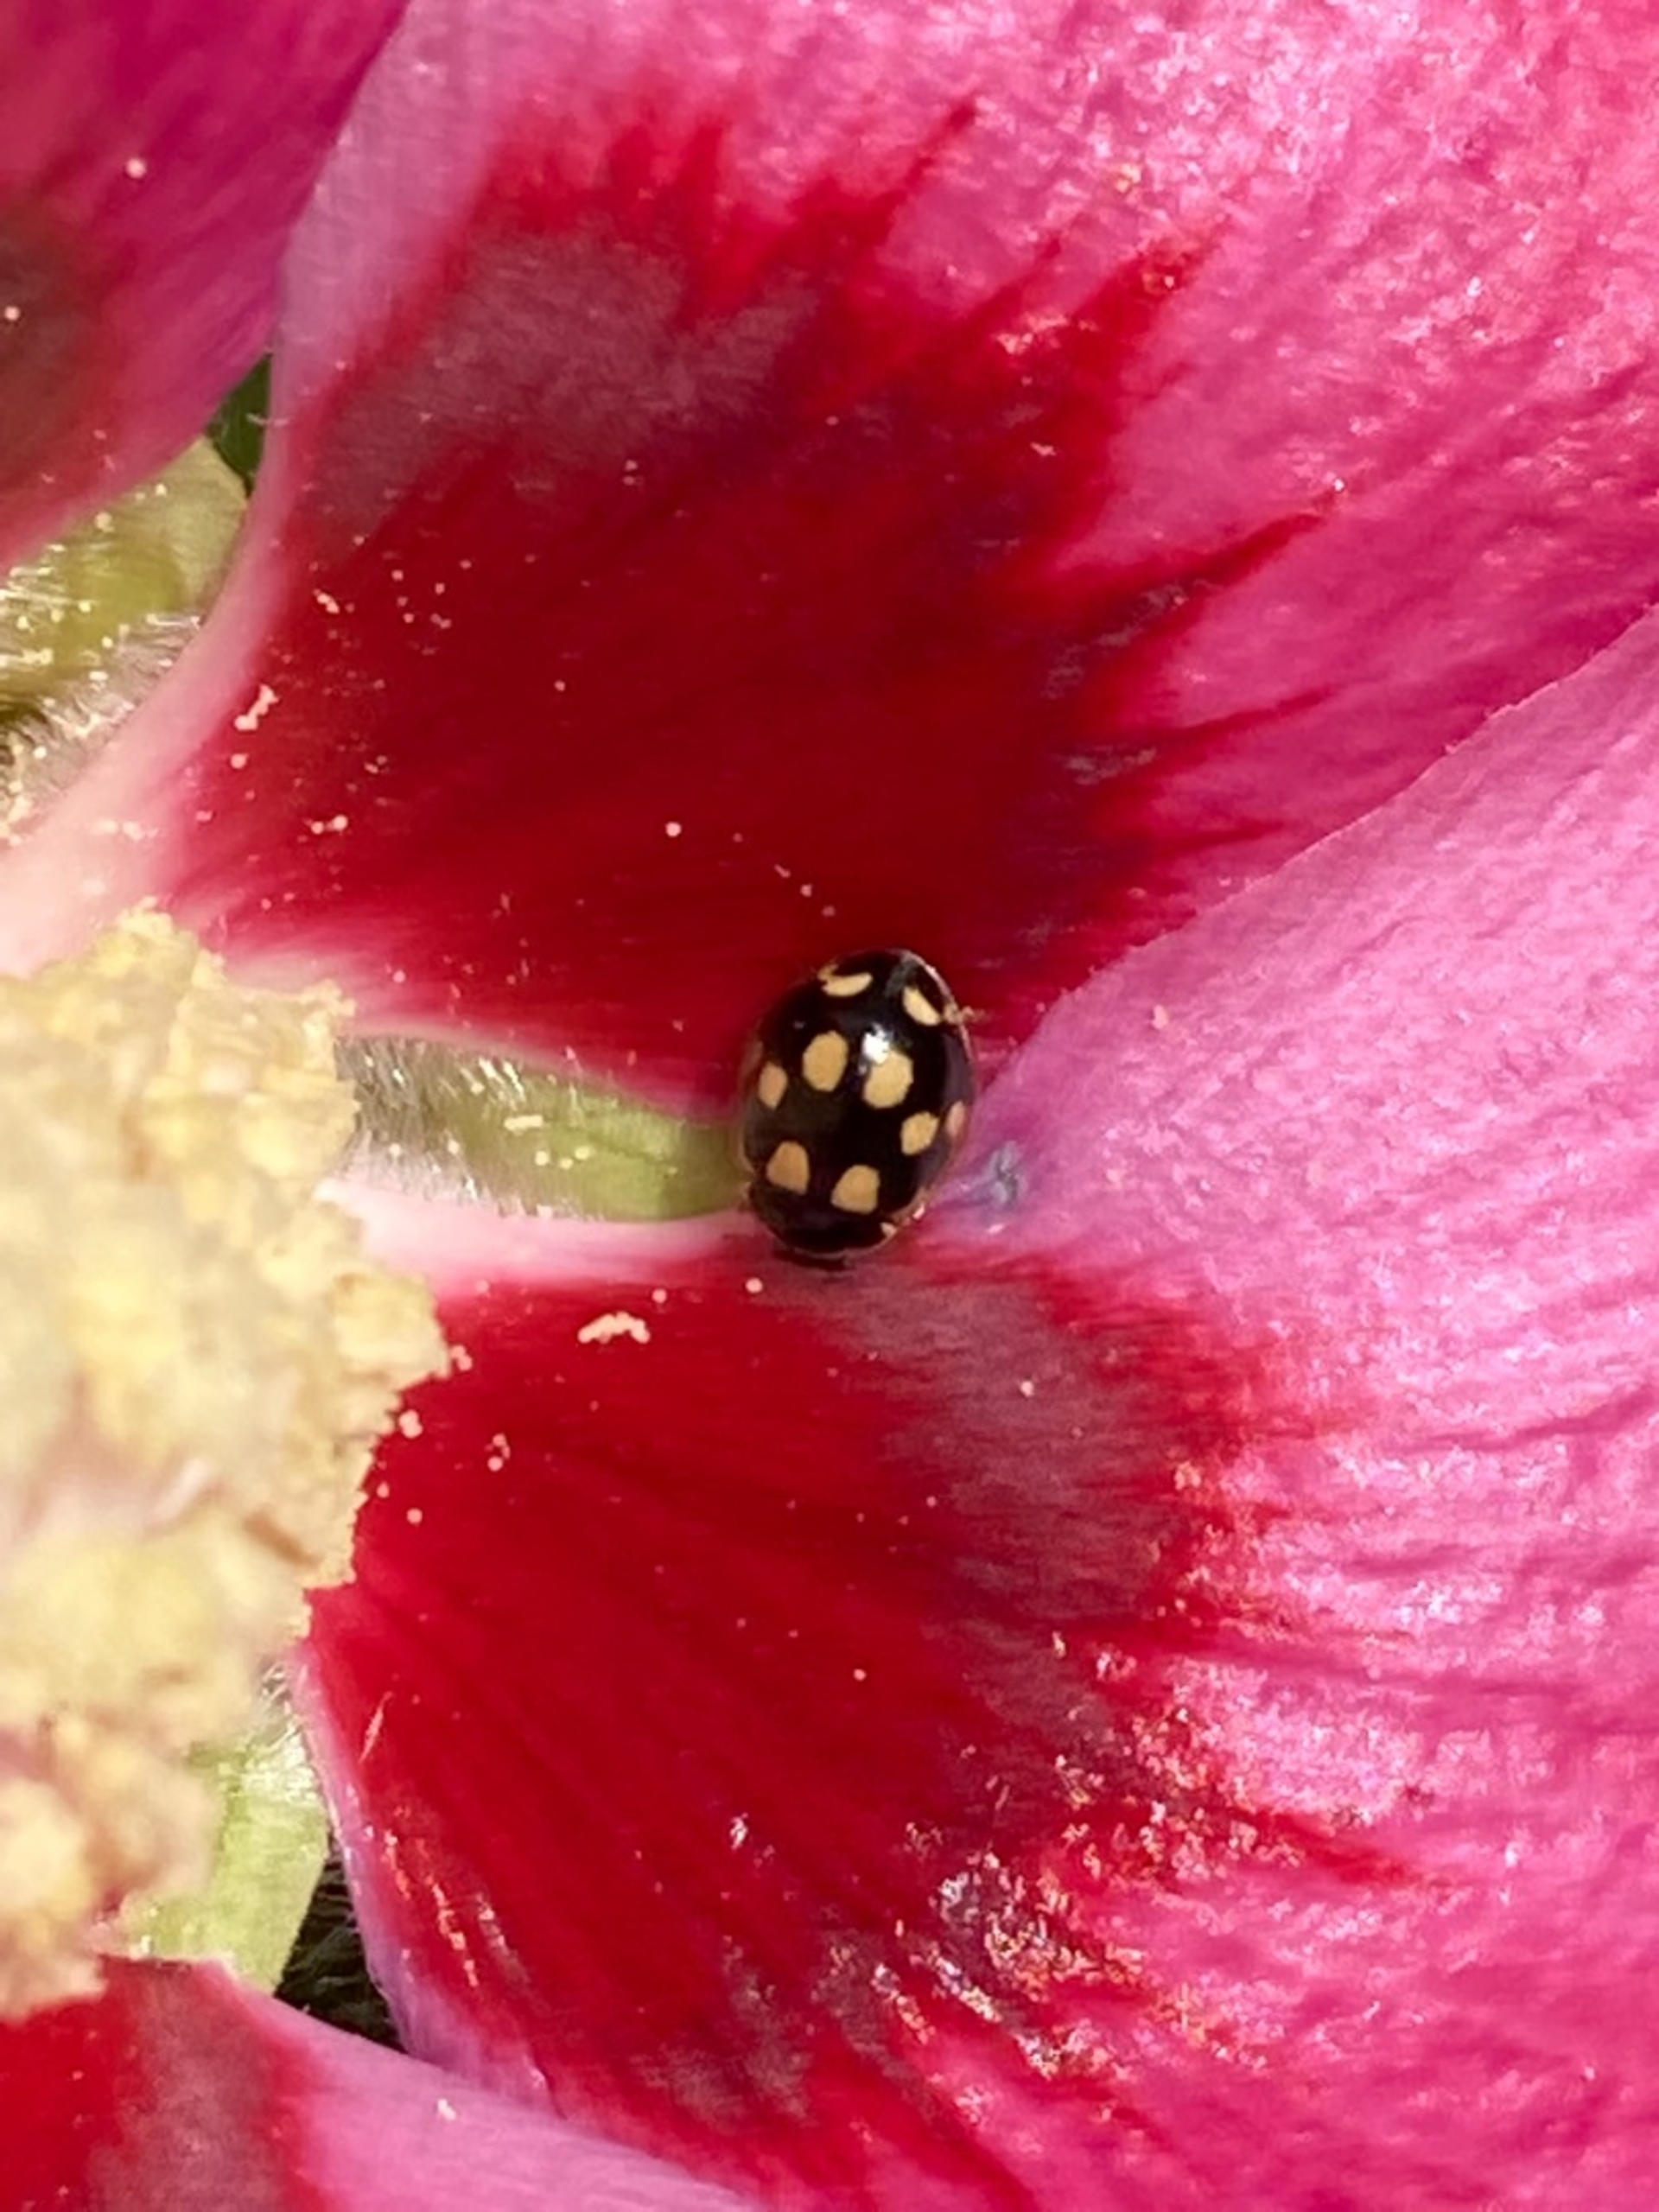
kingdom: Animalia
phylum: Arthropoda
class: Insecta
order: Coleoptera
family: Coccinellidae
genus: Propylaea
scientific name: Propylaea quatuordecimpunctata
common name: Skakbræt
